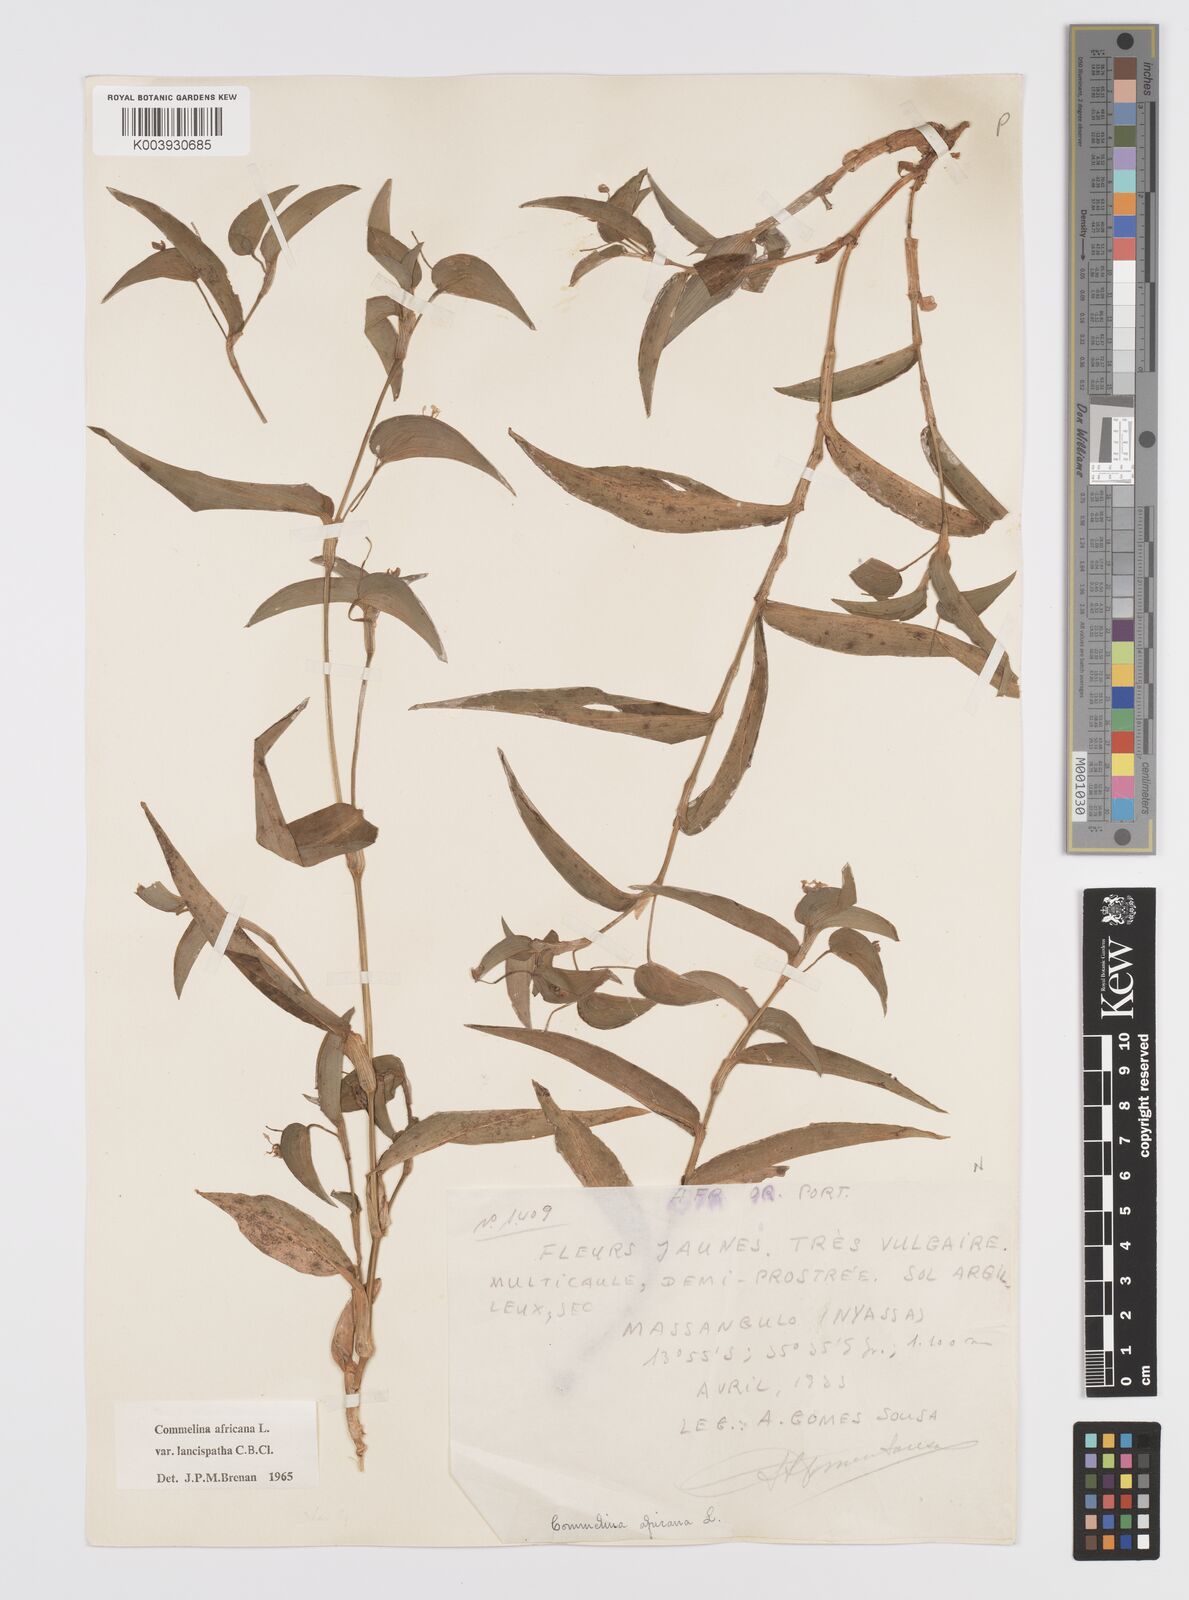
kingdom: Plantae
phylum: Tracheophyta
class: Liliopsida
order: Commelinales
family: Commelinaceae
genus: Commelina
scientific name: Commelina africana
